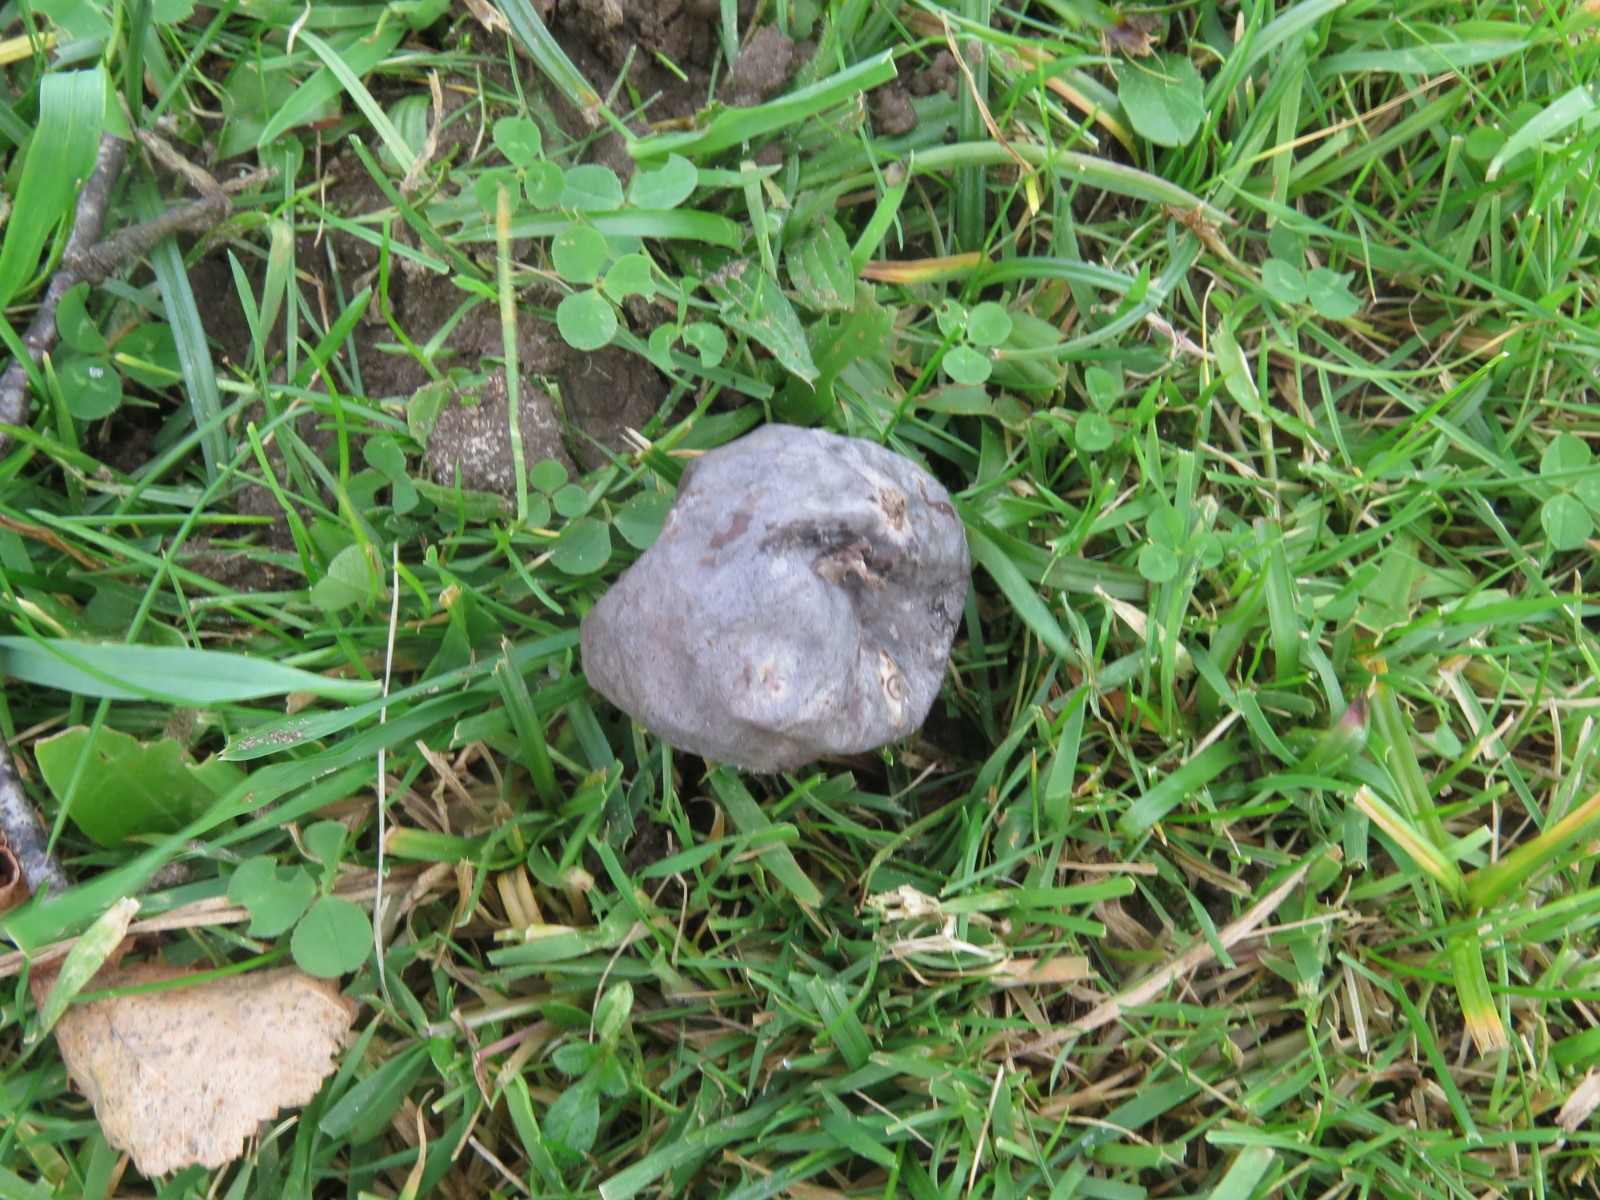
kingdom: Fungi
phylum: Basidiomycota
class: Agaricomycetes
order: Agaricales
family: Lycoperdaceae
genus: Bovista
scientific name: Bovista plumbea
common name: blygrå bovist
